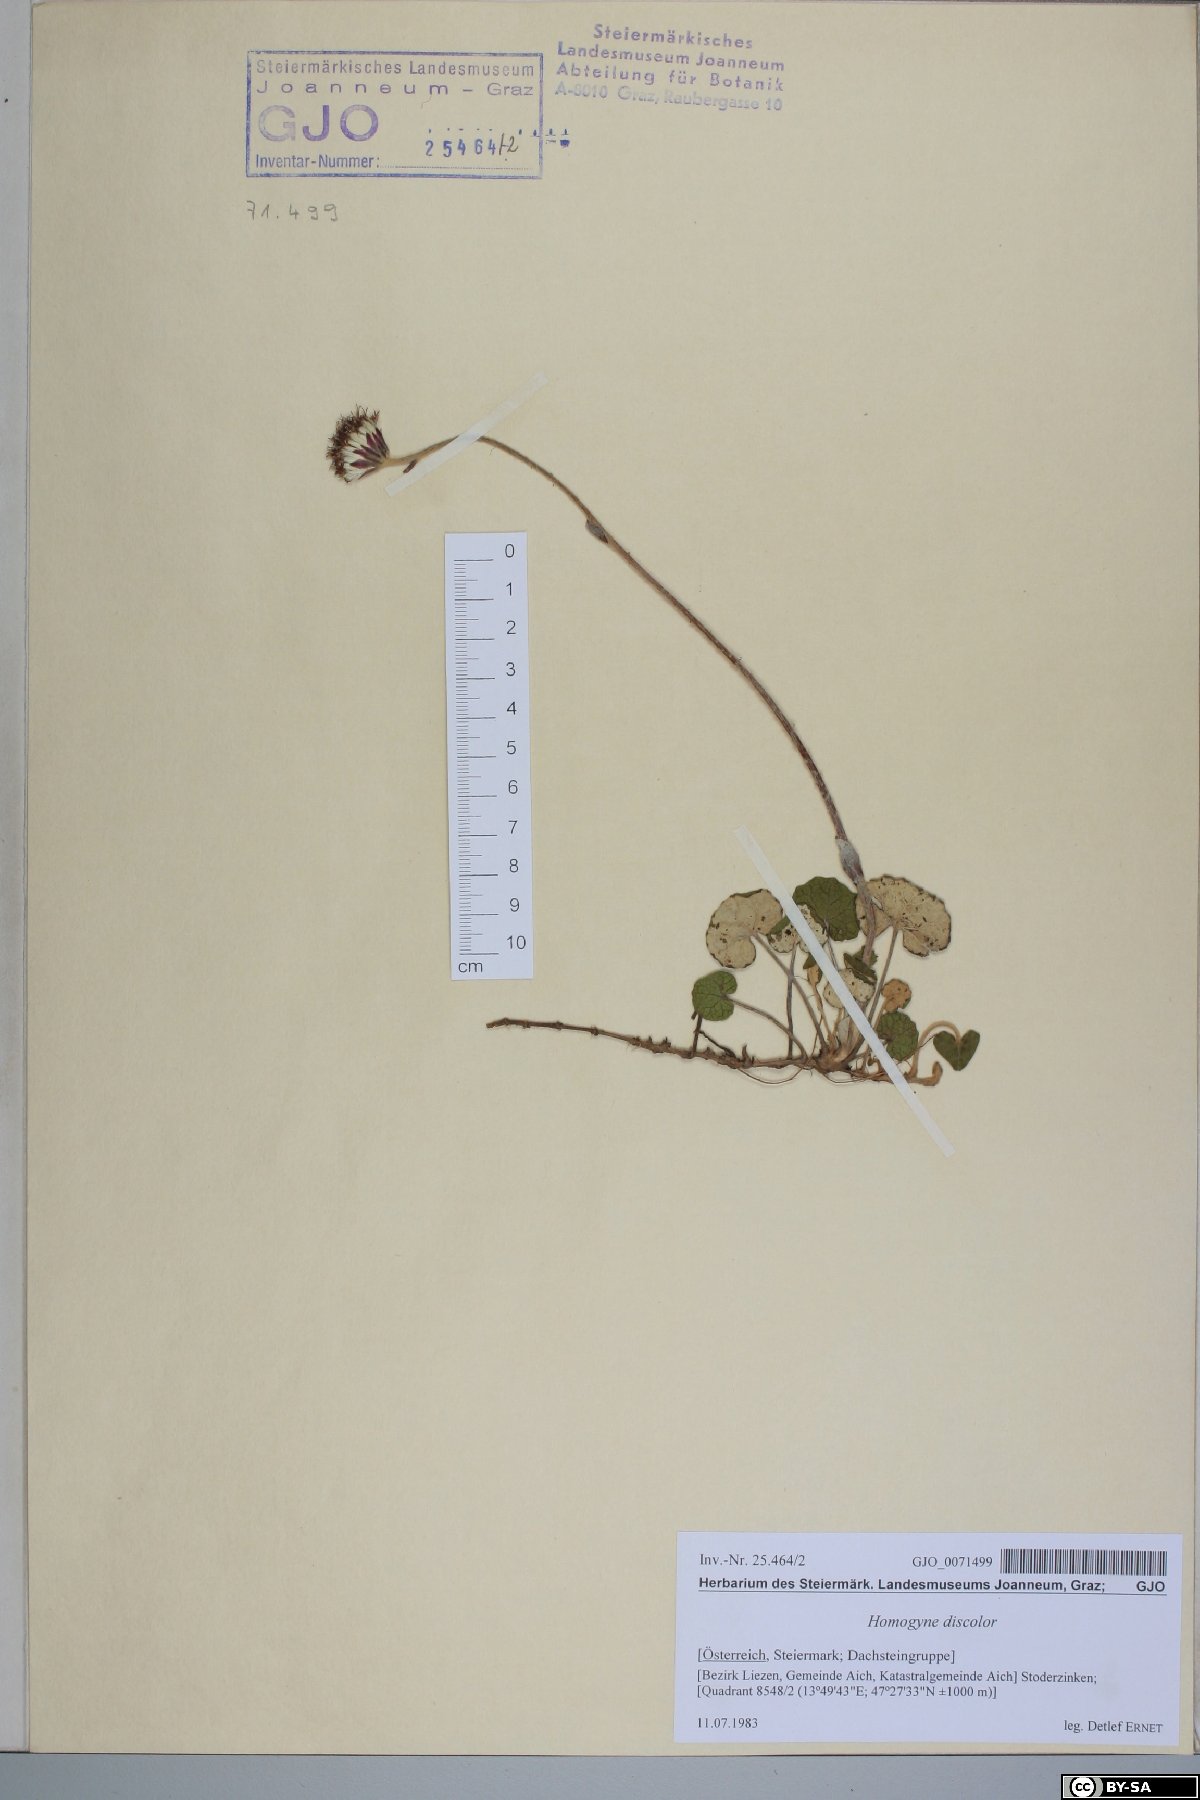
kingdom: Plantae
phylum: Tracheophyta
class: Magnoliopsida
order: Asterales
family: Asteraceae
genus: Homogyne
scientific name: Homogyne discolor
